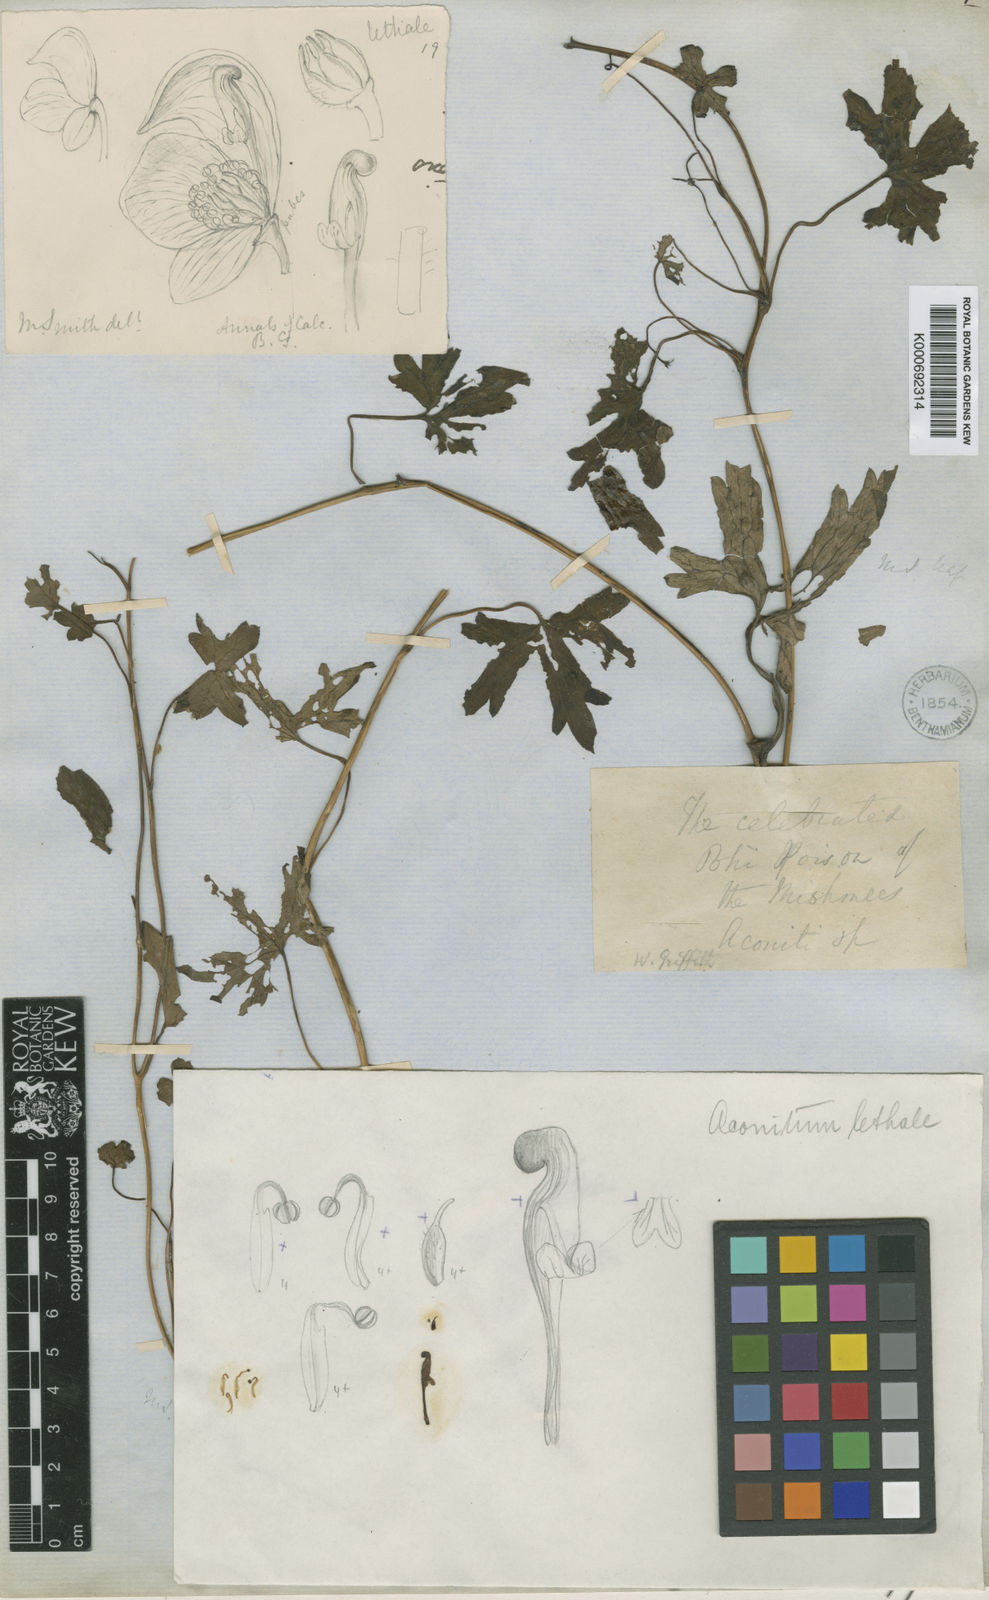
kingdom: Plantae
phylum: Tracheophyta
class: Magnoliopsida
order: Ranunculales
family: Ranunculaceae
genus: Aconitum
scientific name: Aconitum lethale
